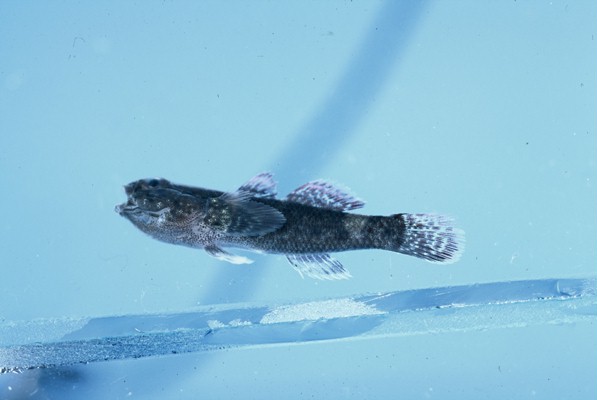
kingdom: Animalia
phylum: Chordata
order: Perciformes
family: Gobiidae
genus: Bathygobius
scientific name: Bathygobius cyclopterus
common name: Cyclops frillgoby
